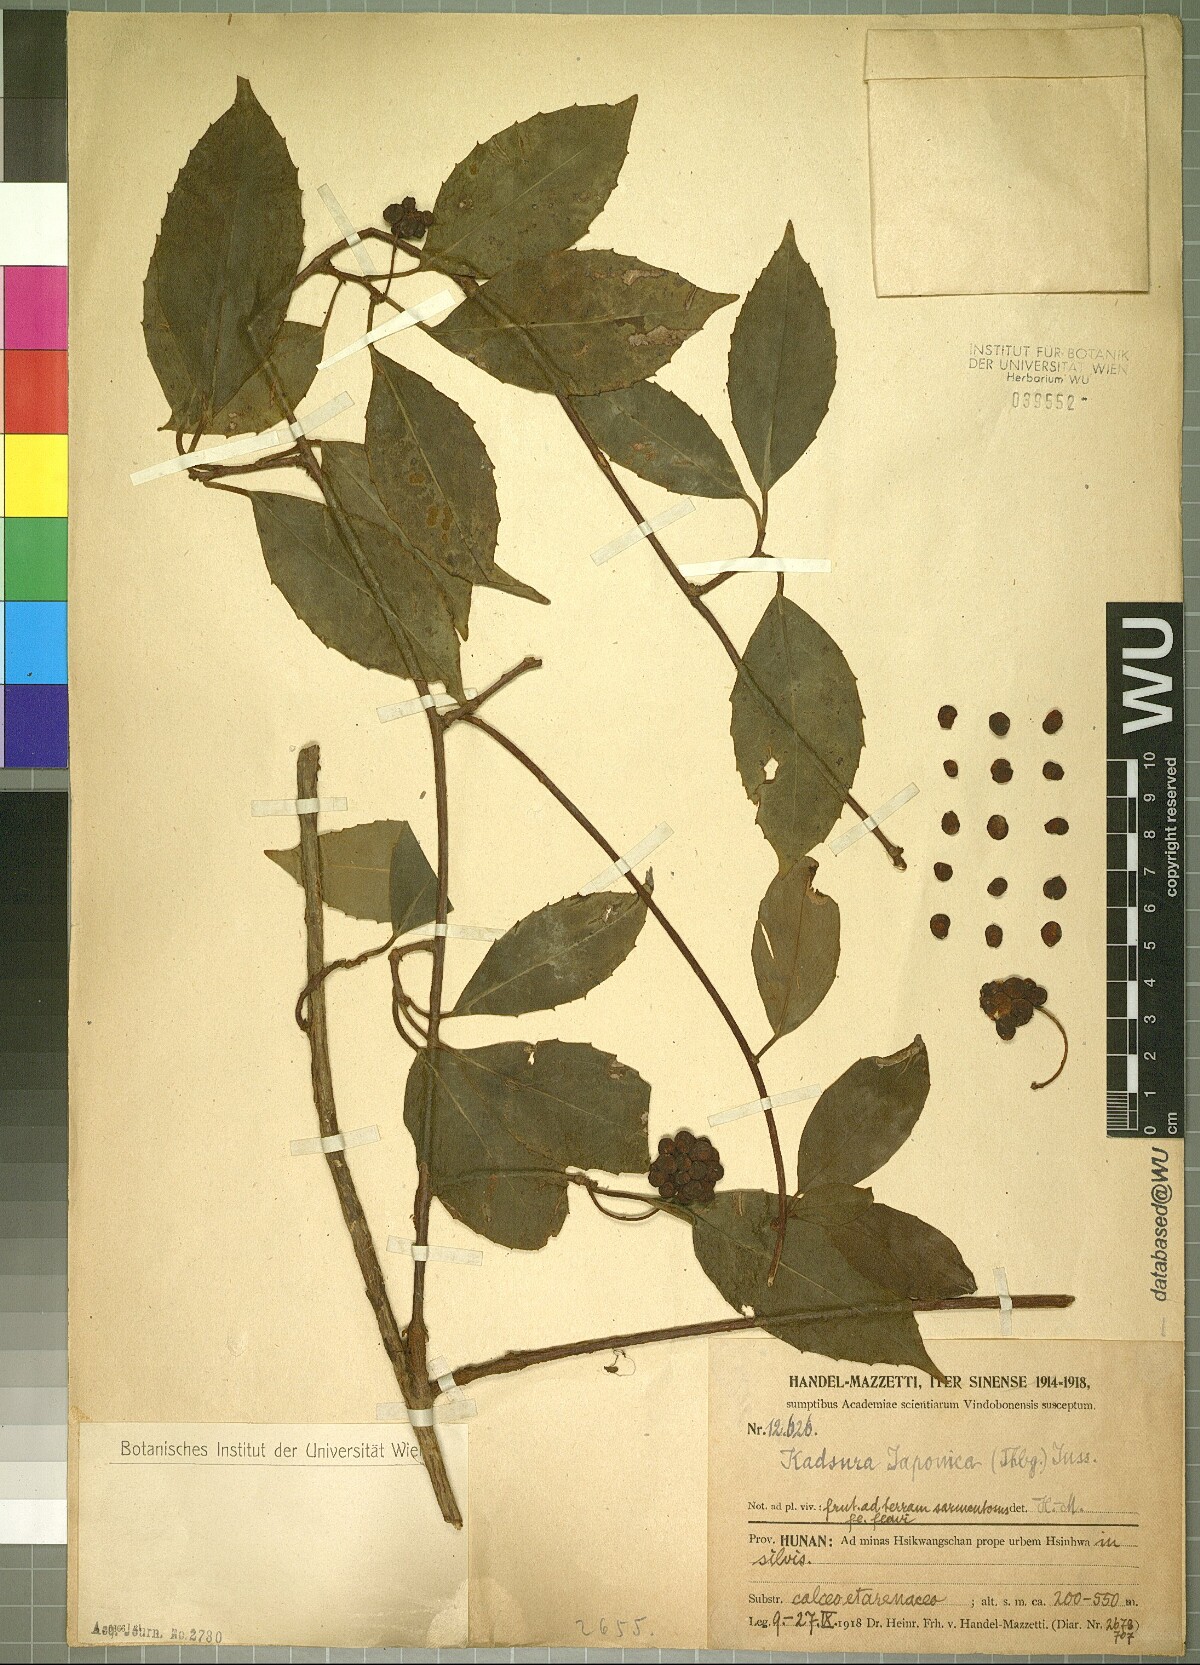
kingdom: Plantae
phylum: Tracheophyta
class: Magnoliopsida
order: Austrobaileyales
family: Schisandraceae
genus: Kadsura
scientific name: Kadsura japonica
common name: Japanese kadsura
